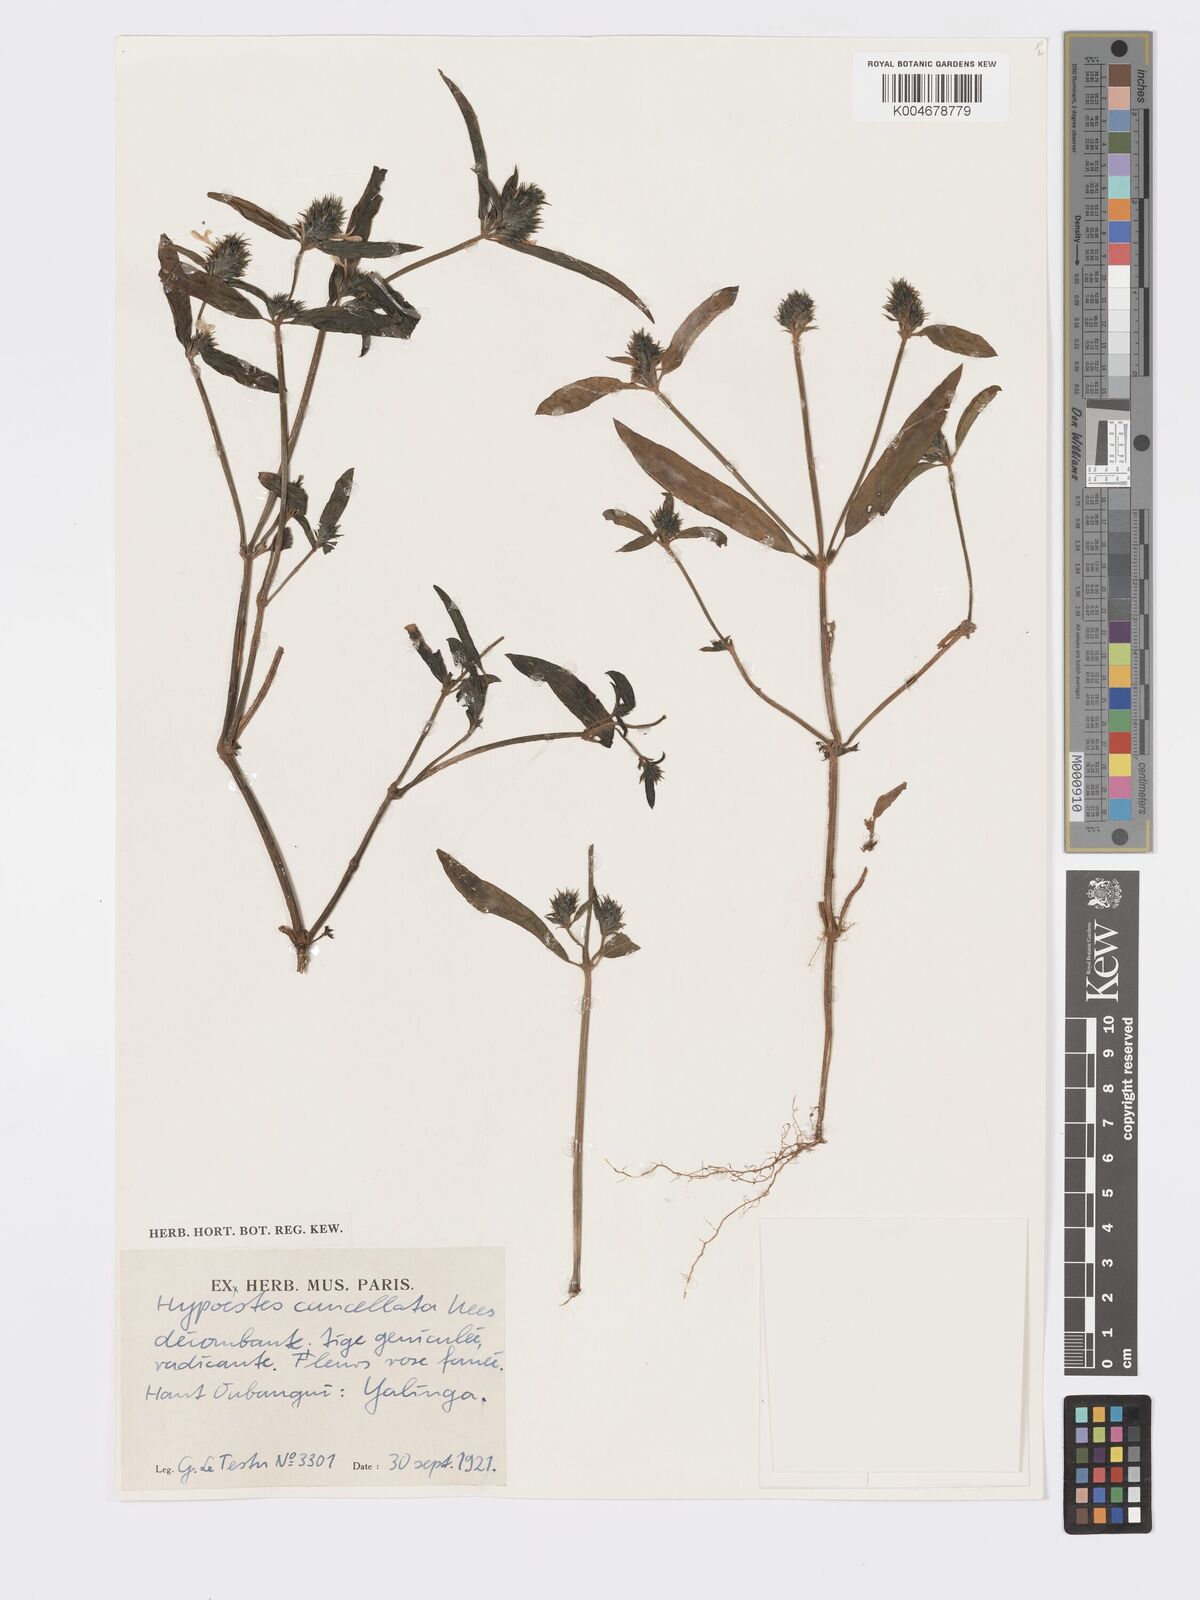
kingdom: Plantae
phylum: Tracheophyta
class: Magnoliopsida
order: Lamiales
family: Acanthaceae
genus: Hypoestes
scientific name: Hypoestes cancellata
